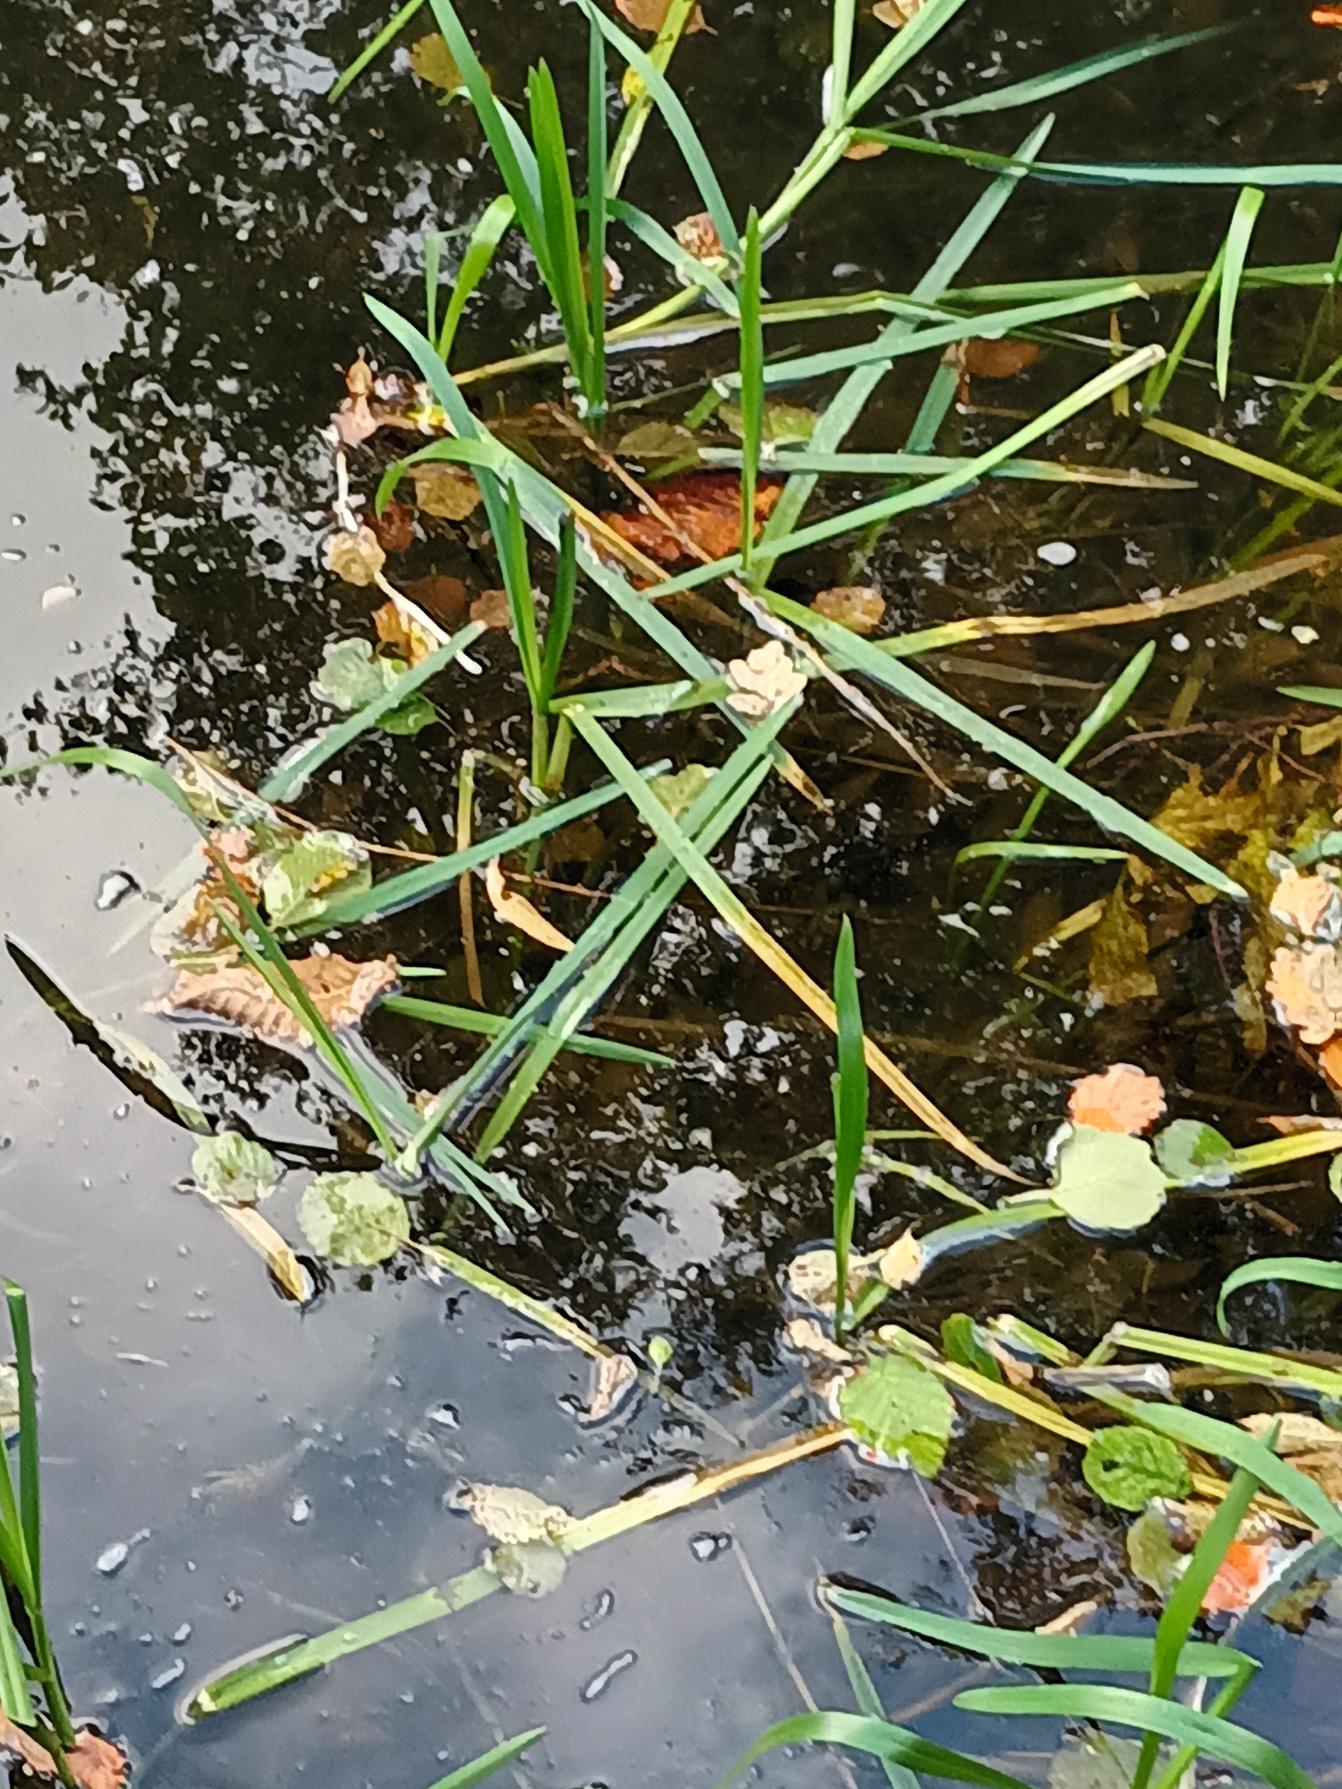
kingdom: Plantae
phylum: Tracheophyta
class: Liliopsida
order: Poales
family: Poaceae
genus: Glyceria
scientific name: Glyceria maxima
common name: Høj sødgræs
